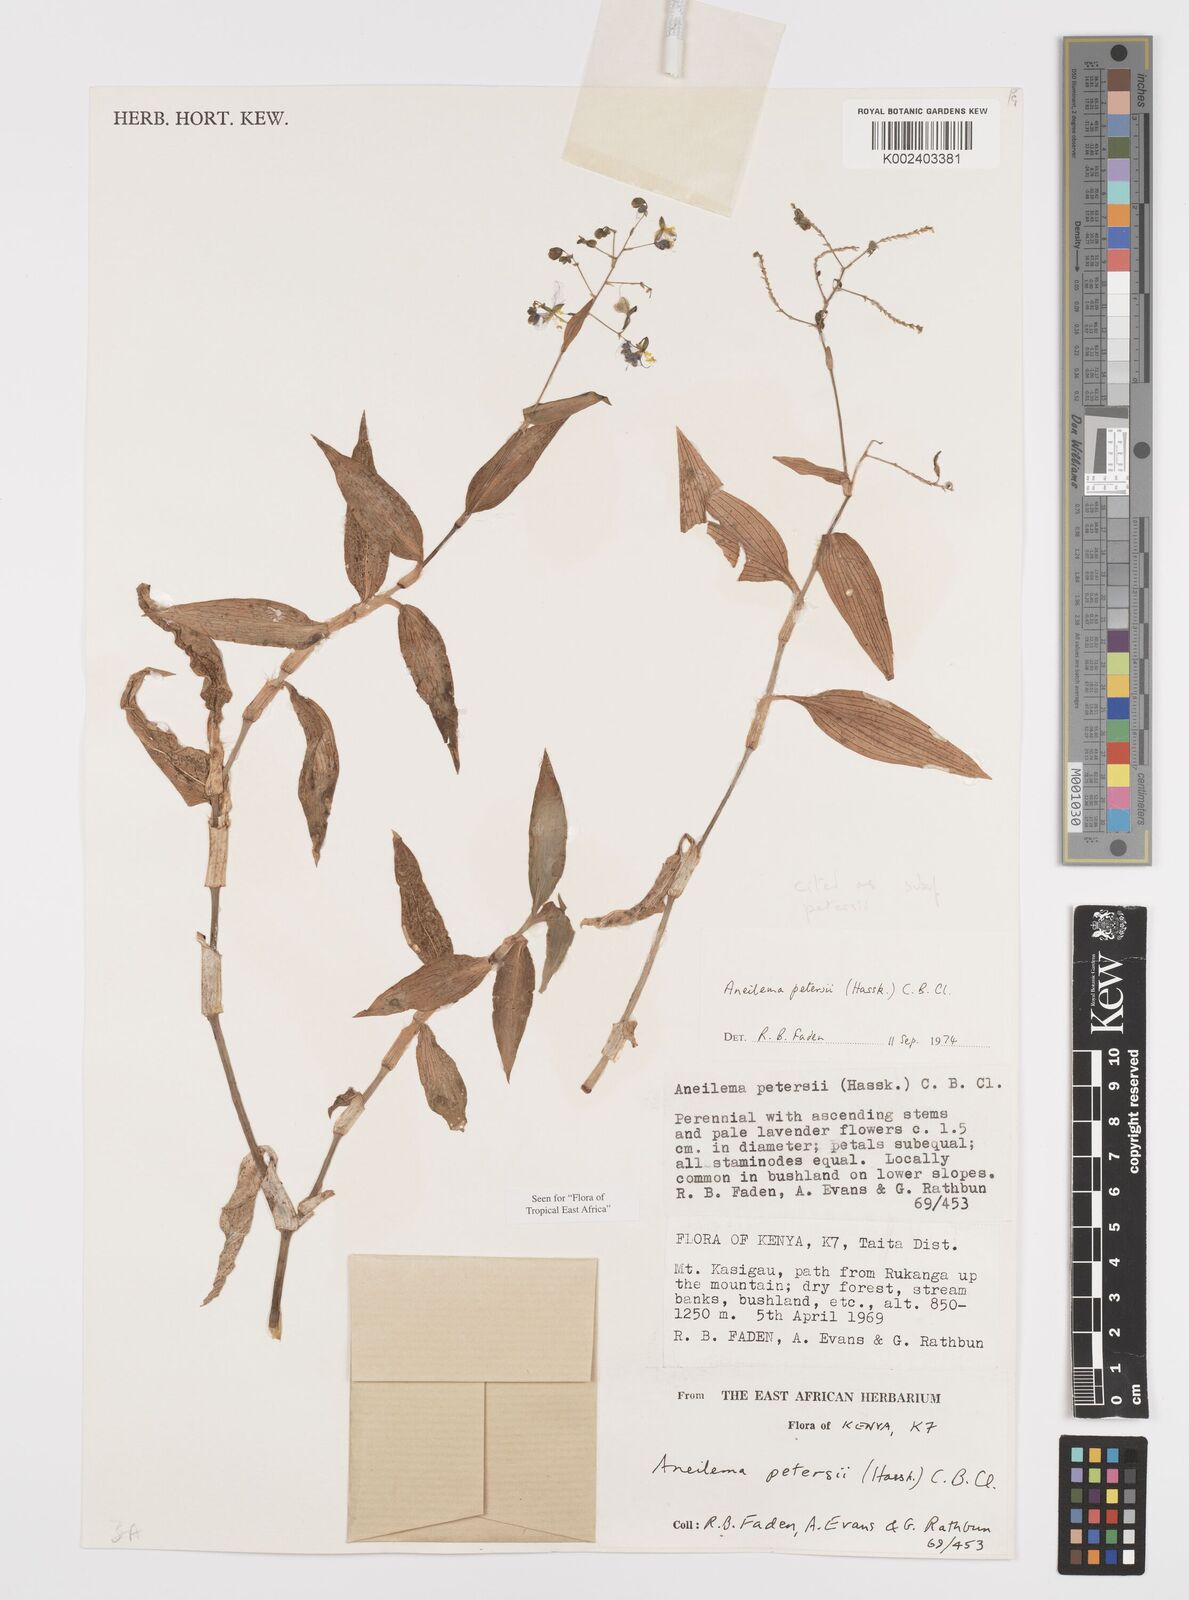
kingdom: Plantae
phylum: Tracheophyta
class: Liliopsida
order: Commelinales
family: Commelinaceae
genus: Aneilema
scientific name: Aneilema petersii
